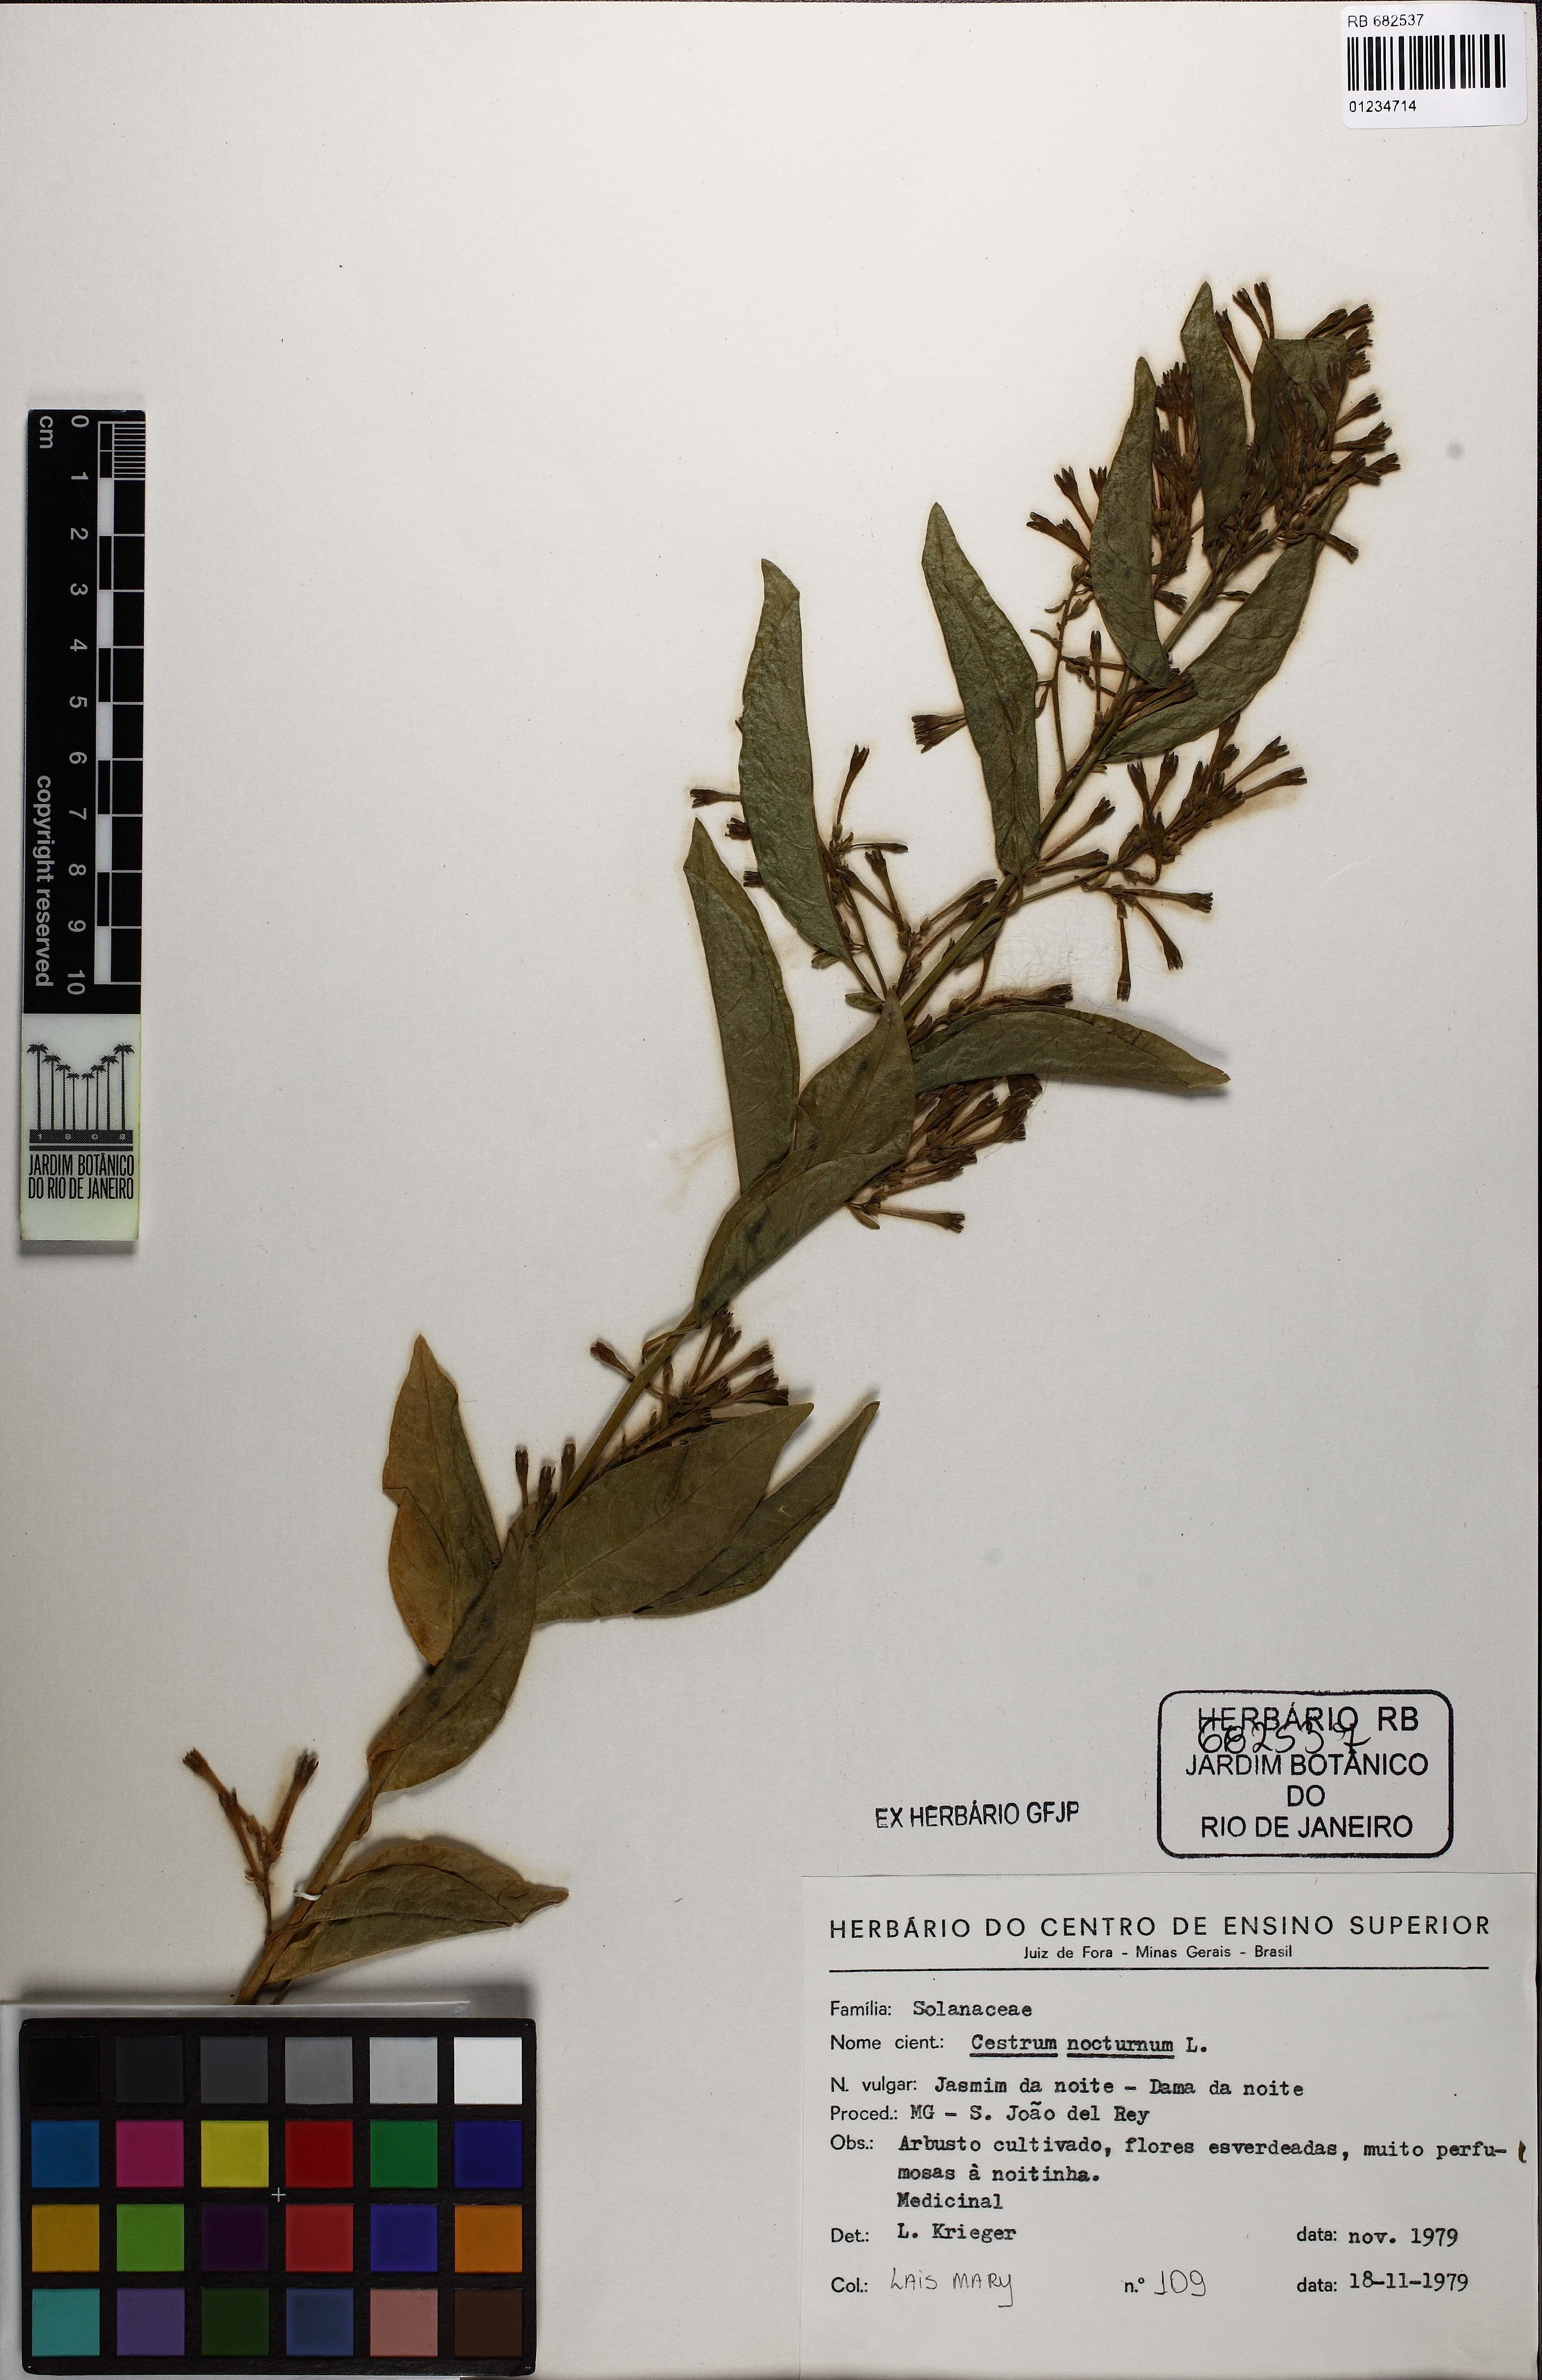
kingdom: Plantae
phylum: Tracheophyta
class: Magnoliopsida
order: Solanales
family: Solanaceae
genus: Cestrum
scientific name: Cestrum nocturnum
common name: Night jessamine
